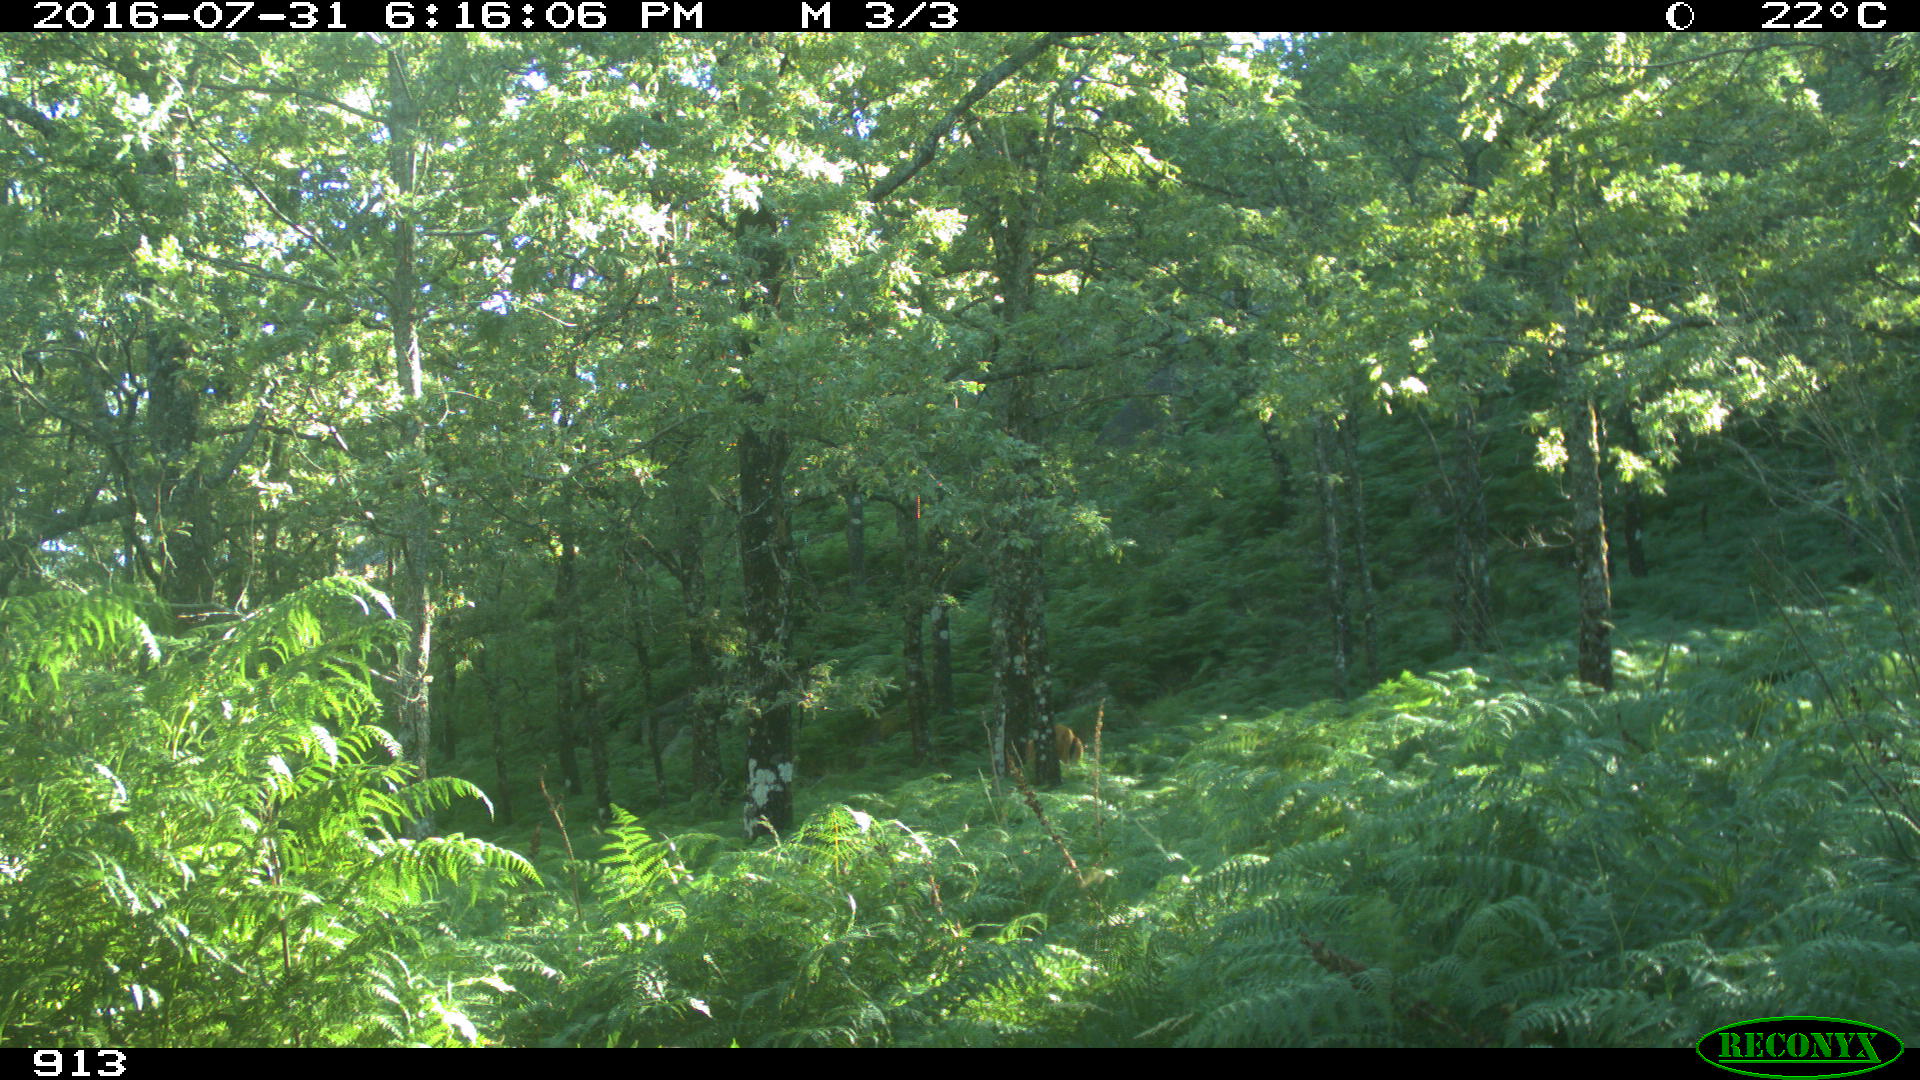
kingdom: Animalia
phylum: Chordata
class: Mammalia
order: Artiodactyla
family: Bovidae
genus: Bos
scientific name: Bos taurus
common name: Domesticated cattle
